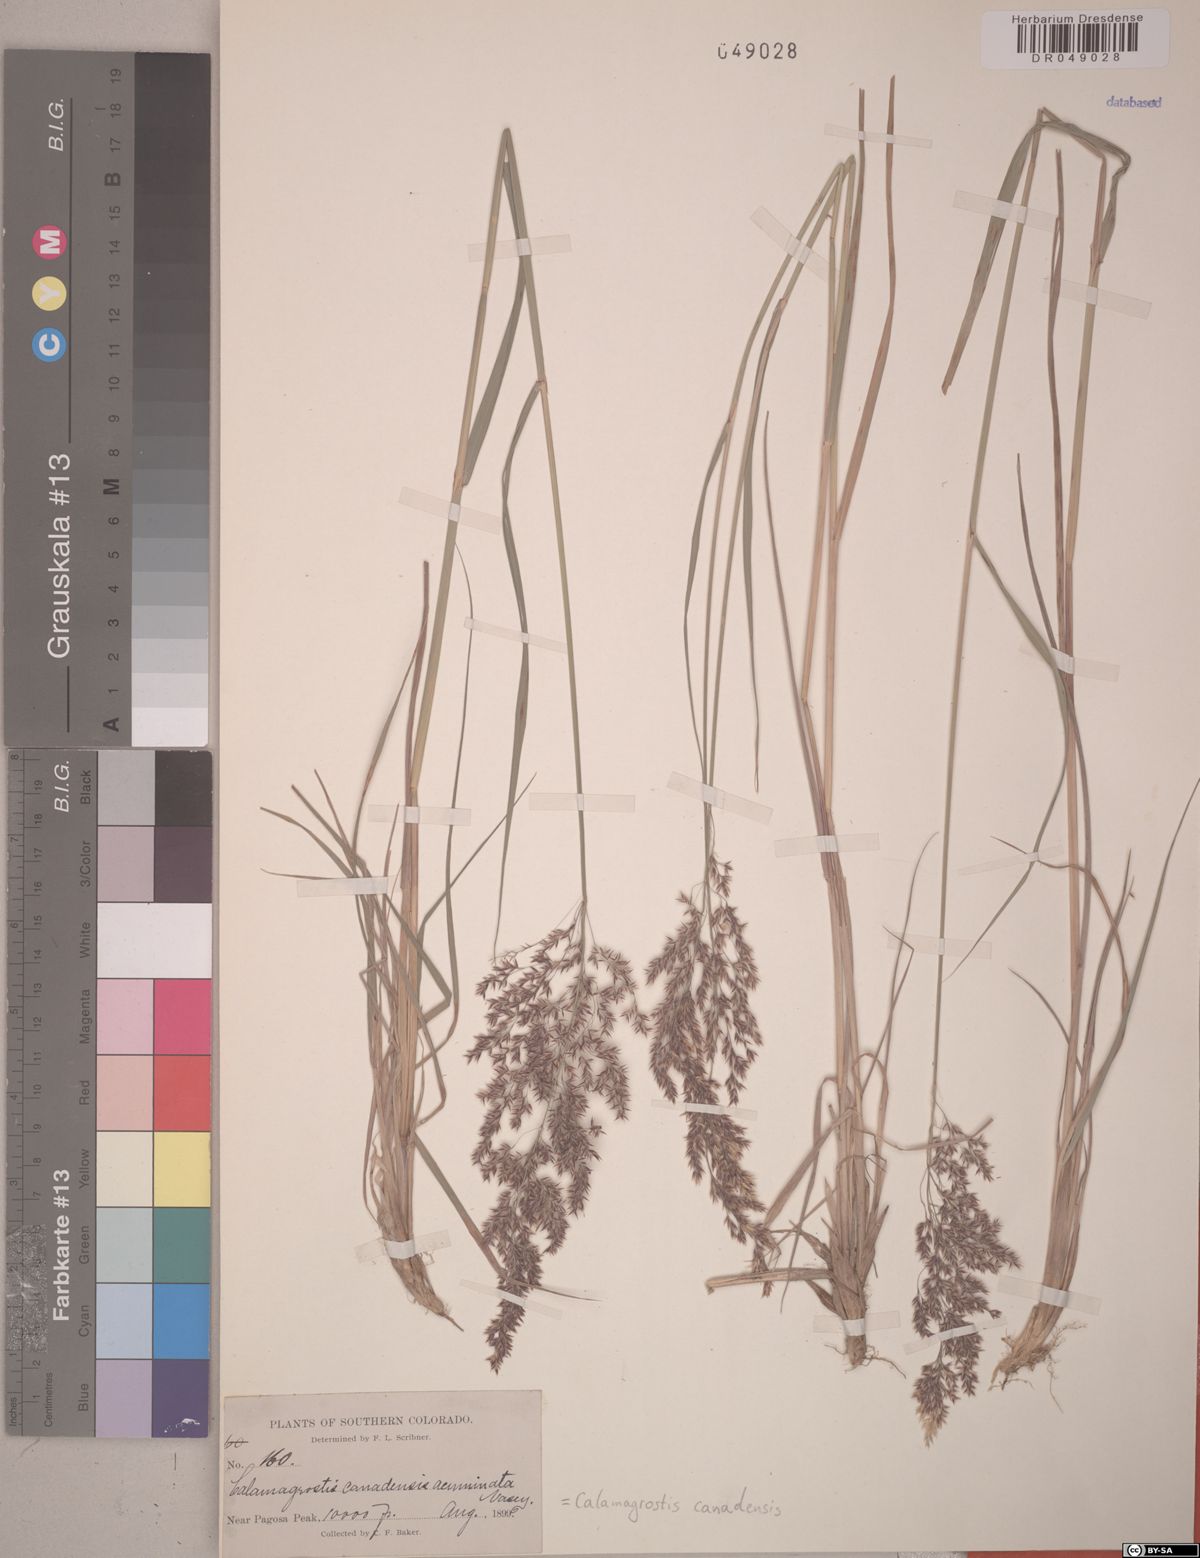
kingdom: Plantae
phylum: Tracheophyta
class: Liliopsida
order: Poales
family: Poaceae
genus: Calamagrostis
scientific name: Calamagrostis canadensis
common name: Canada bluejoint
